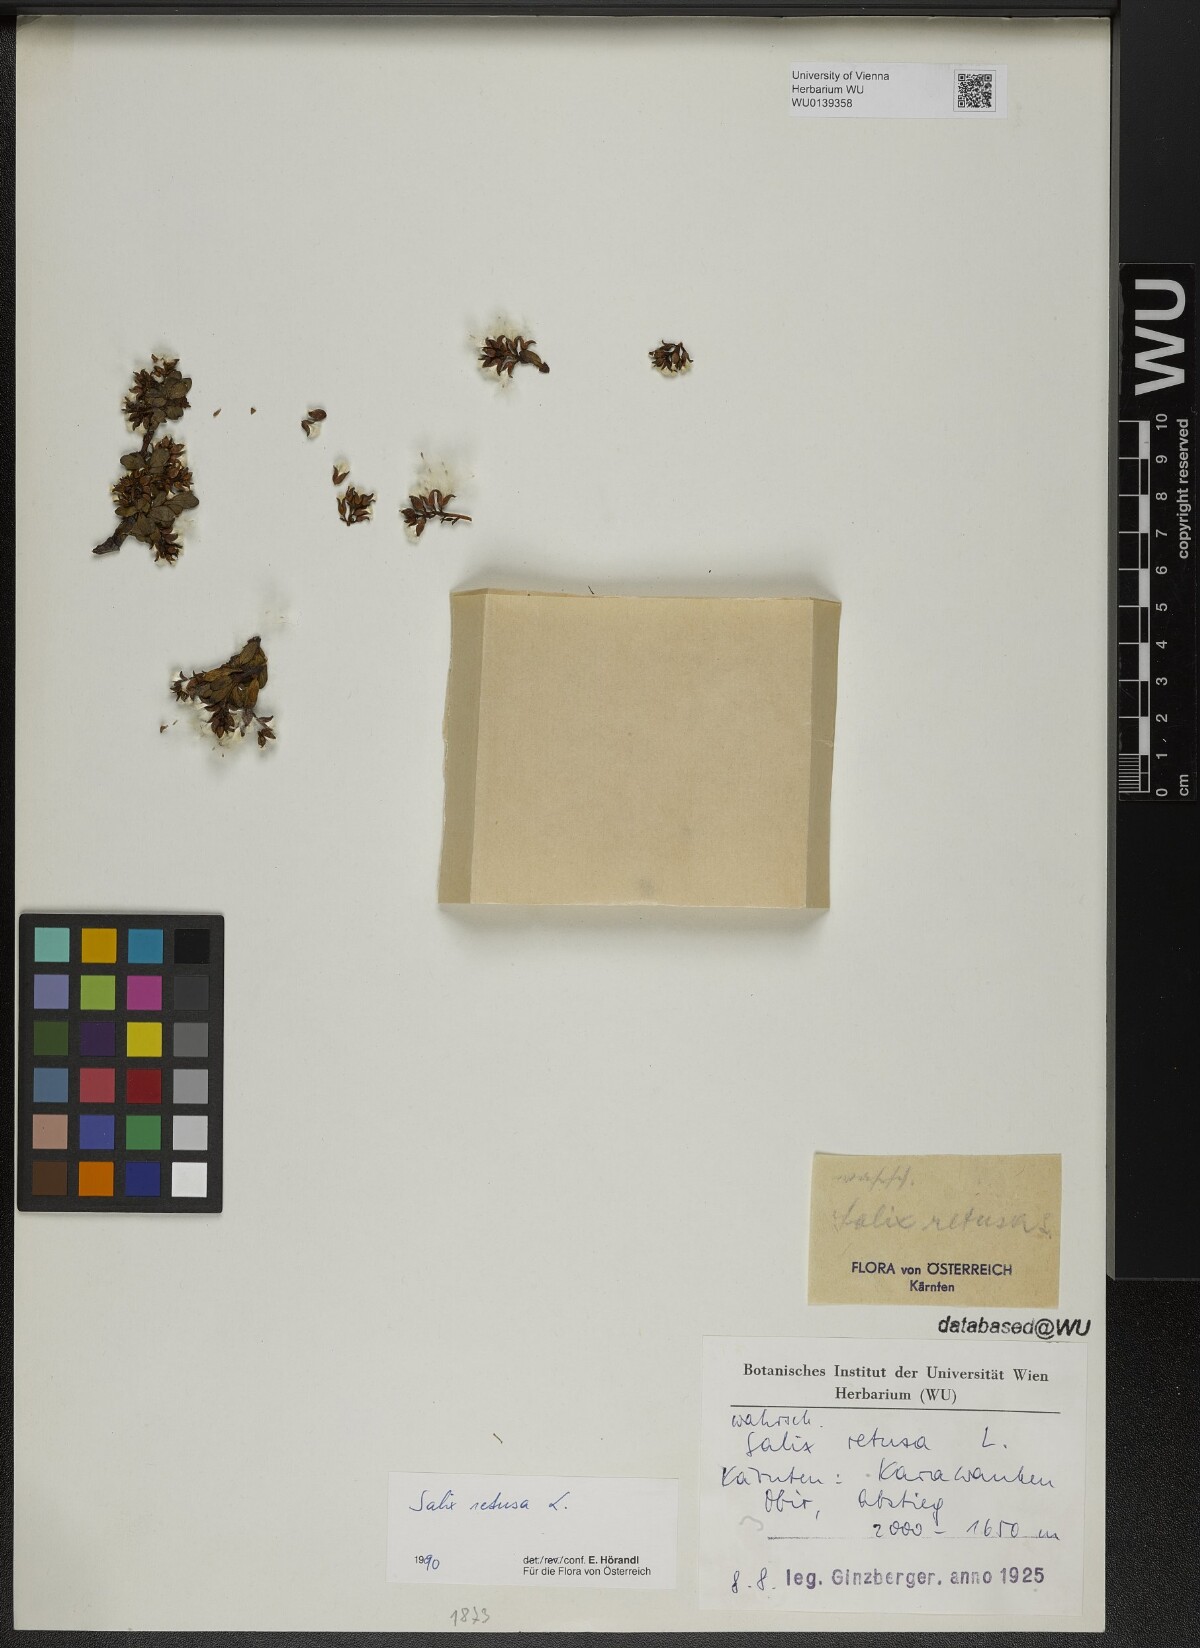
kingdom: Plantae
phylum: Tracheophyta
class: Magnoliopsida
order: Malpighiales
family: Salicaceae
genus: Salix
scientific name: Salix retusa
